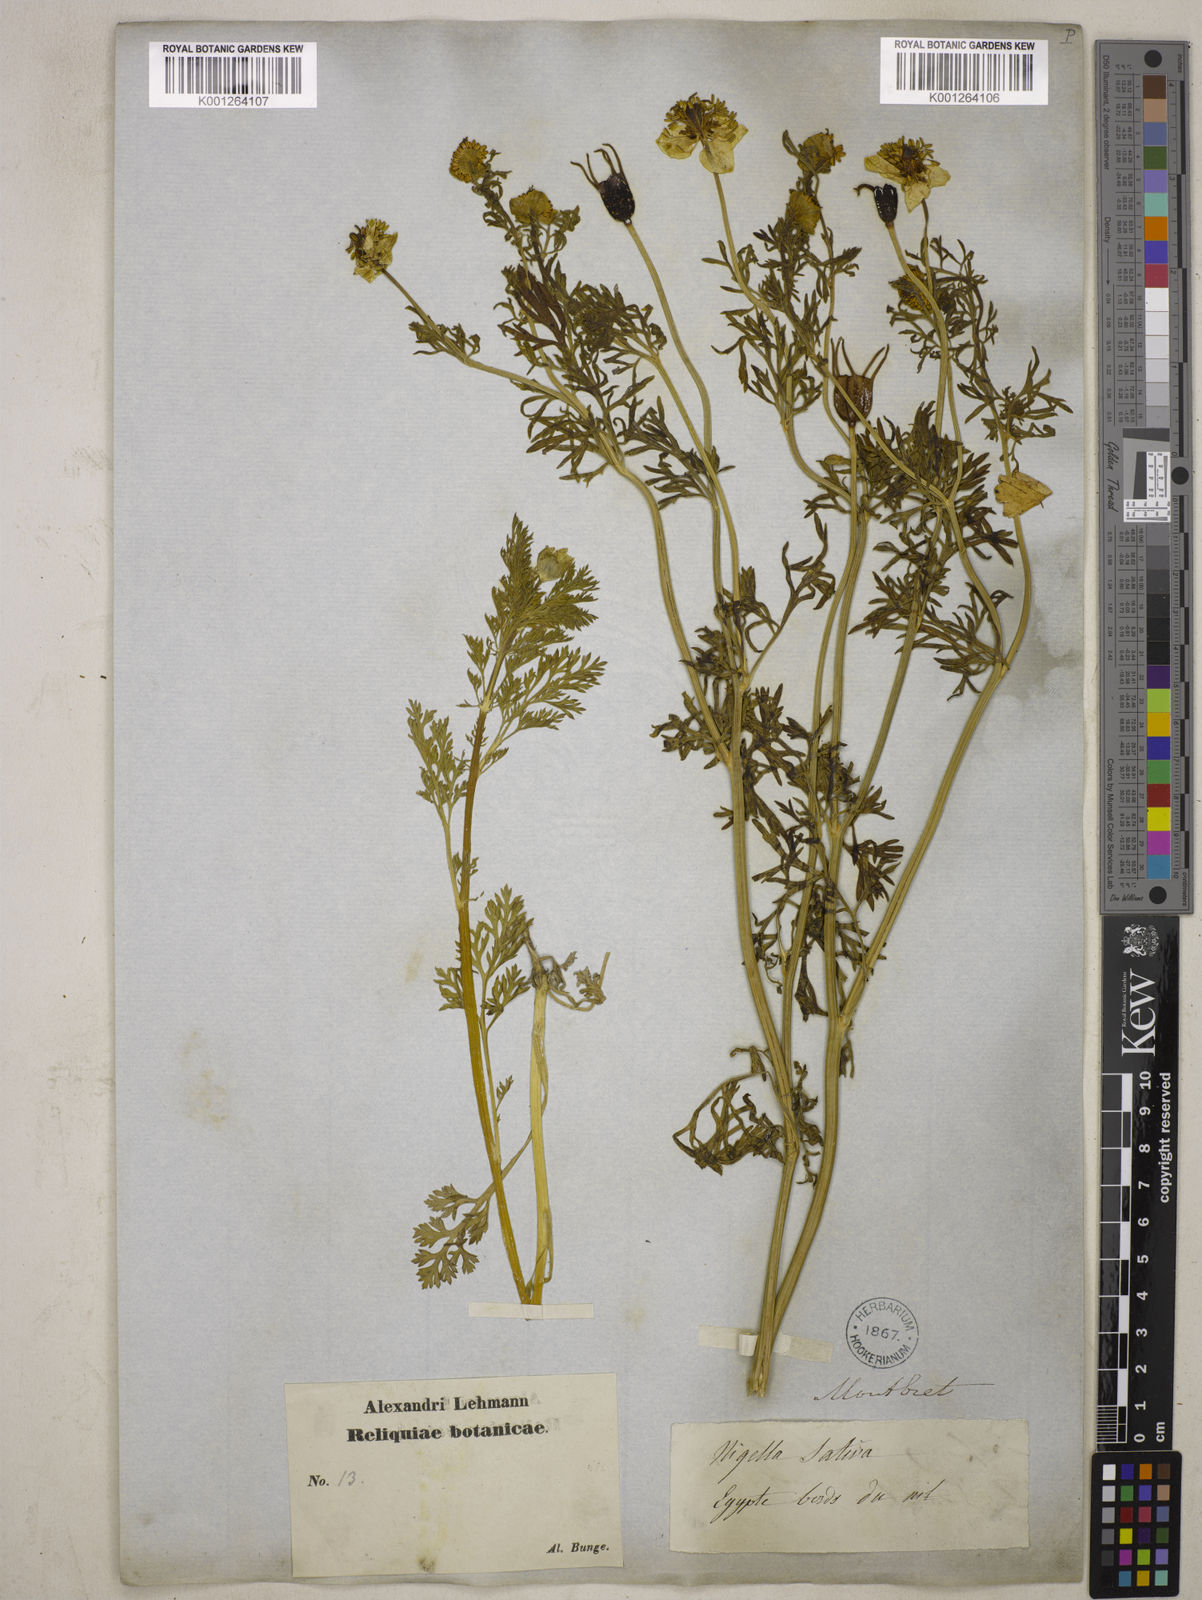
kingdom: Plantae
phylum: Tracheophyta
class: Magnoliopsida
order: Ranunculales
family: Ranunculaceae
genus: Nigella
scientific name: Nigella sativa
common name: Black-cumin
